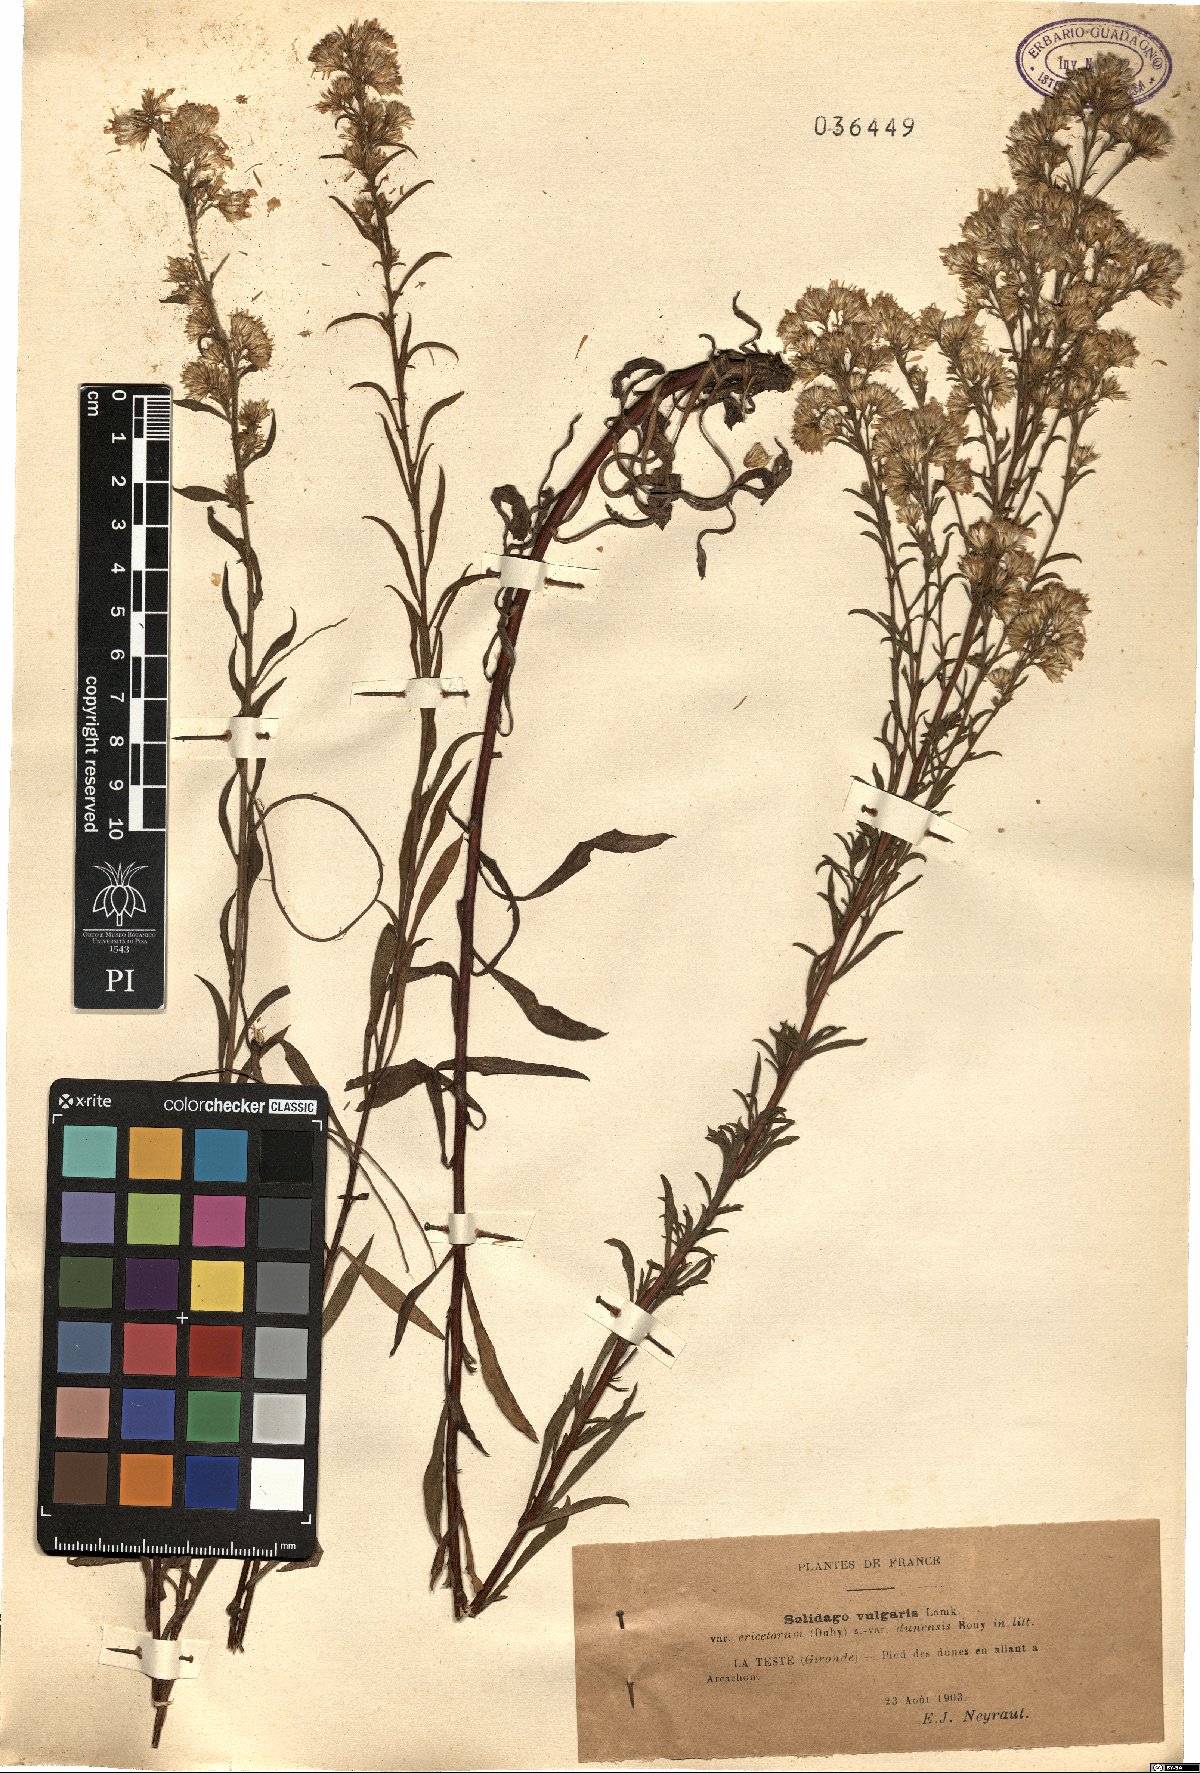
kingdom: Plantae
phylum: Tracheophyta
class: Magnoliopsida
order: Asterales
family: Asteraceae
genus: Solidago
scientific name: Solidago virgaurea
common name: Goldenrod
